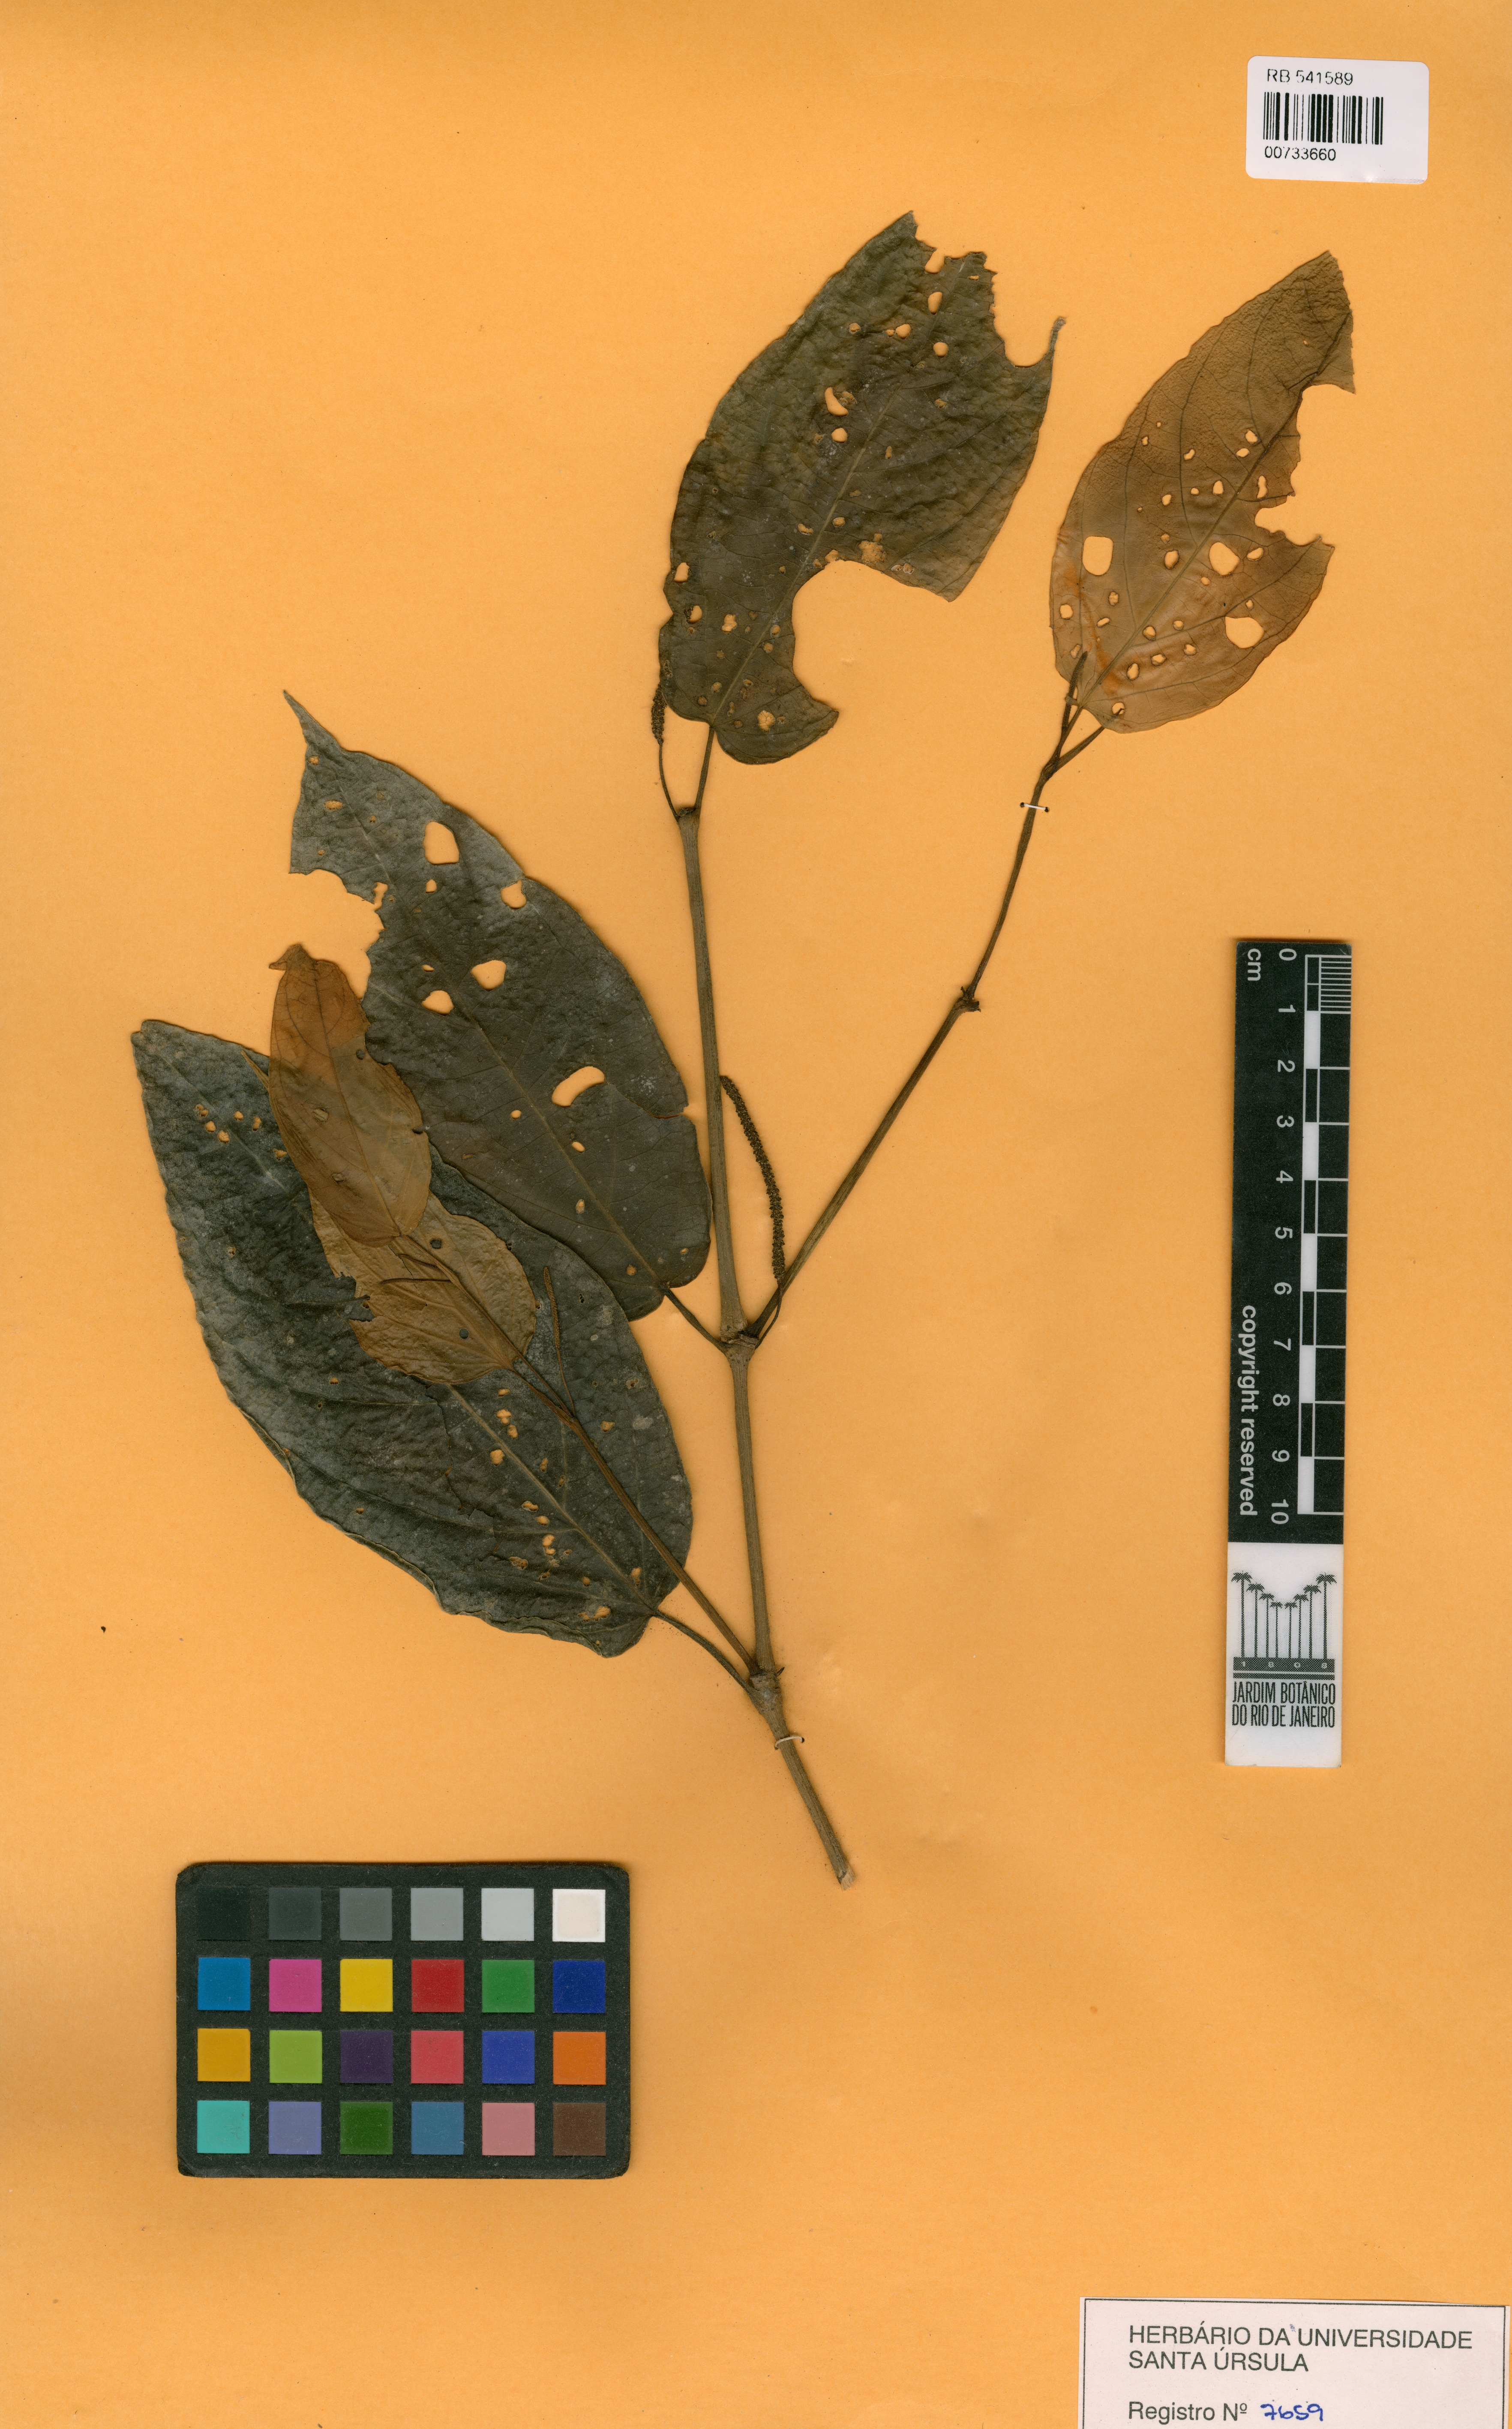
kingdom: Plantae
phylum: Tracheophyta
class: Magnoliopsida
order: Piperales
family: Piperaceae
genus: Piper
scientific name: Piper giordanoi
